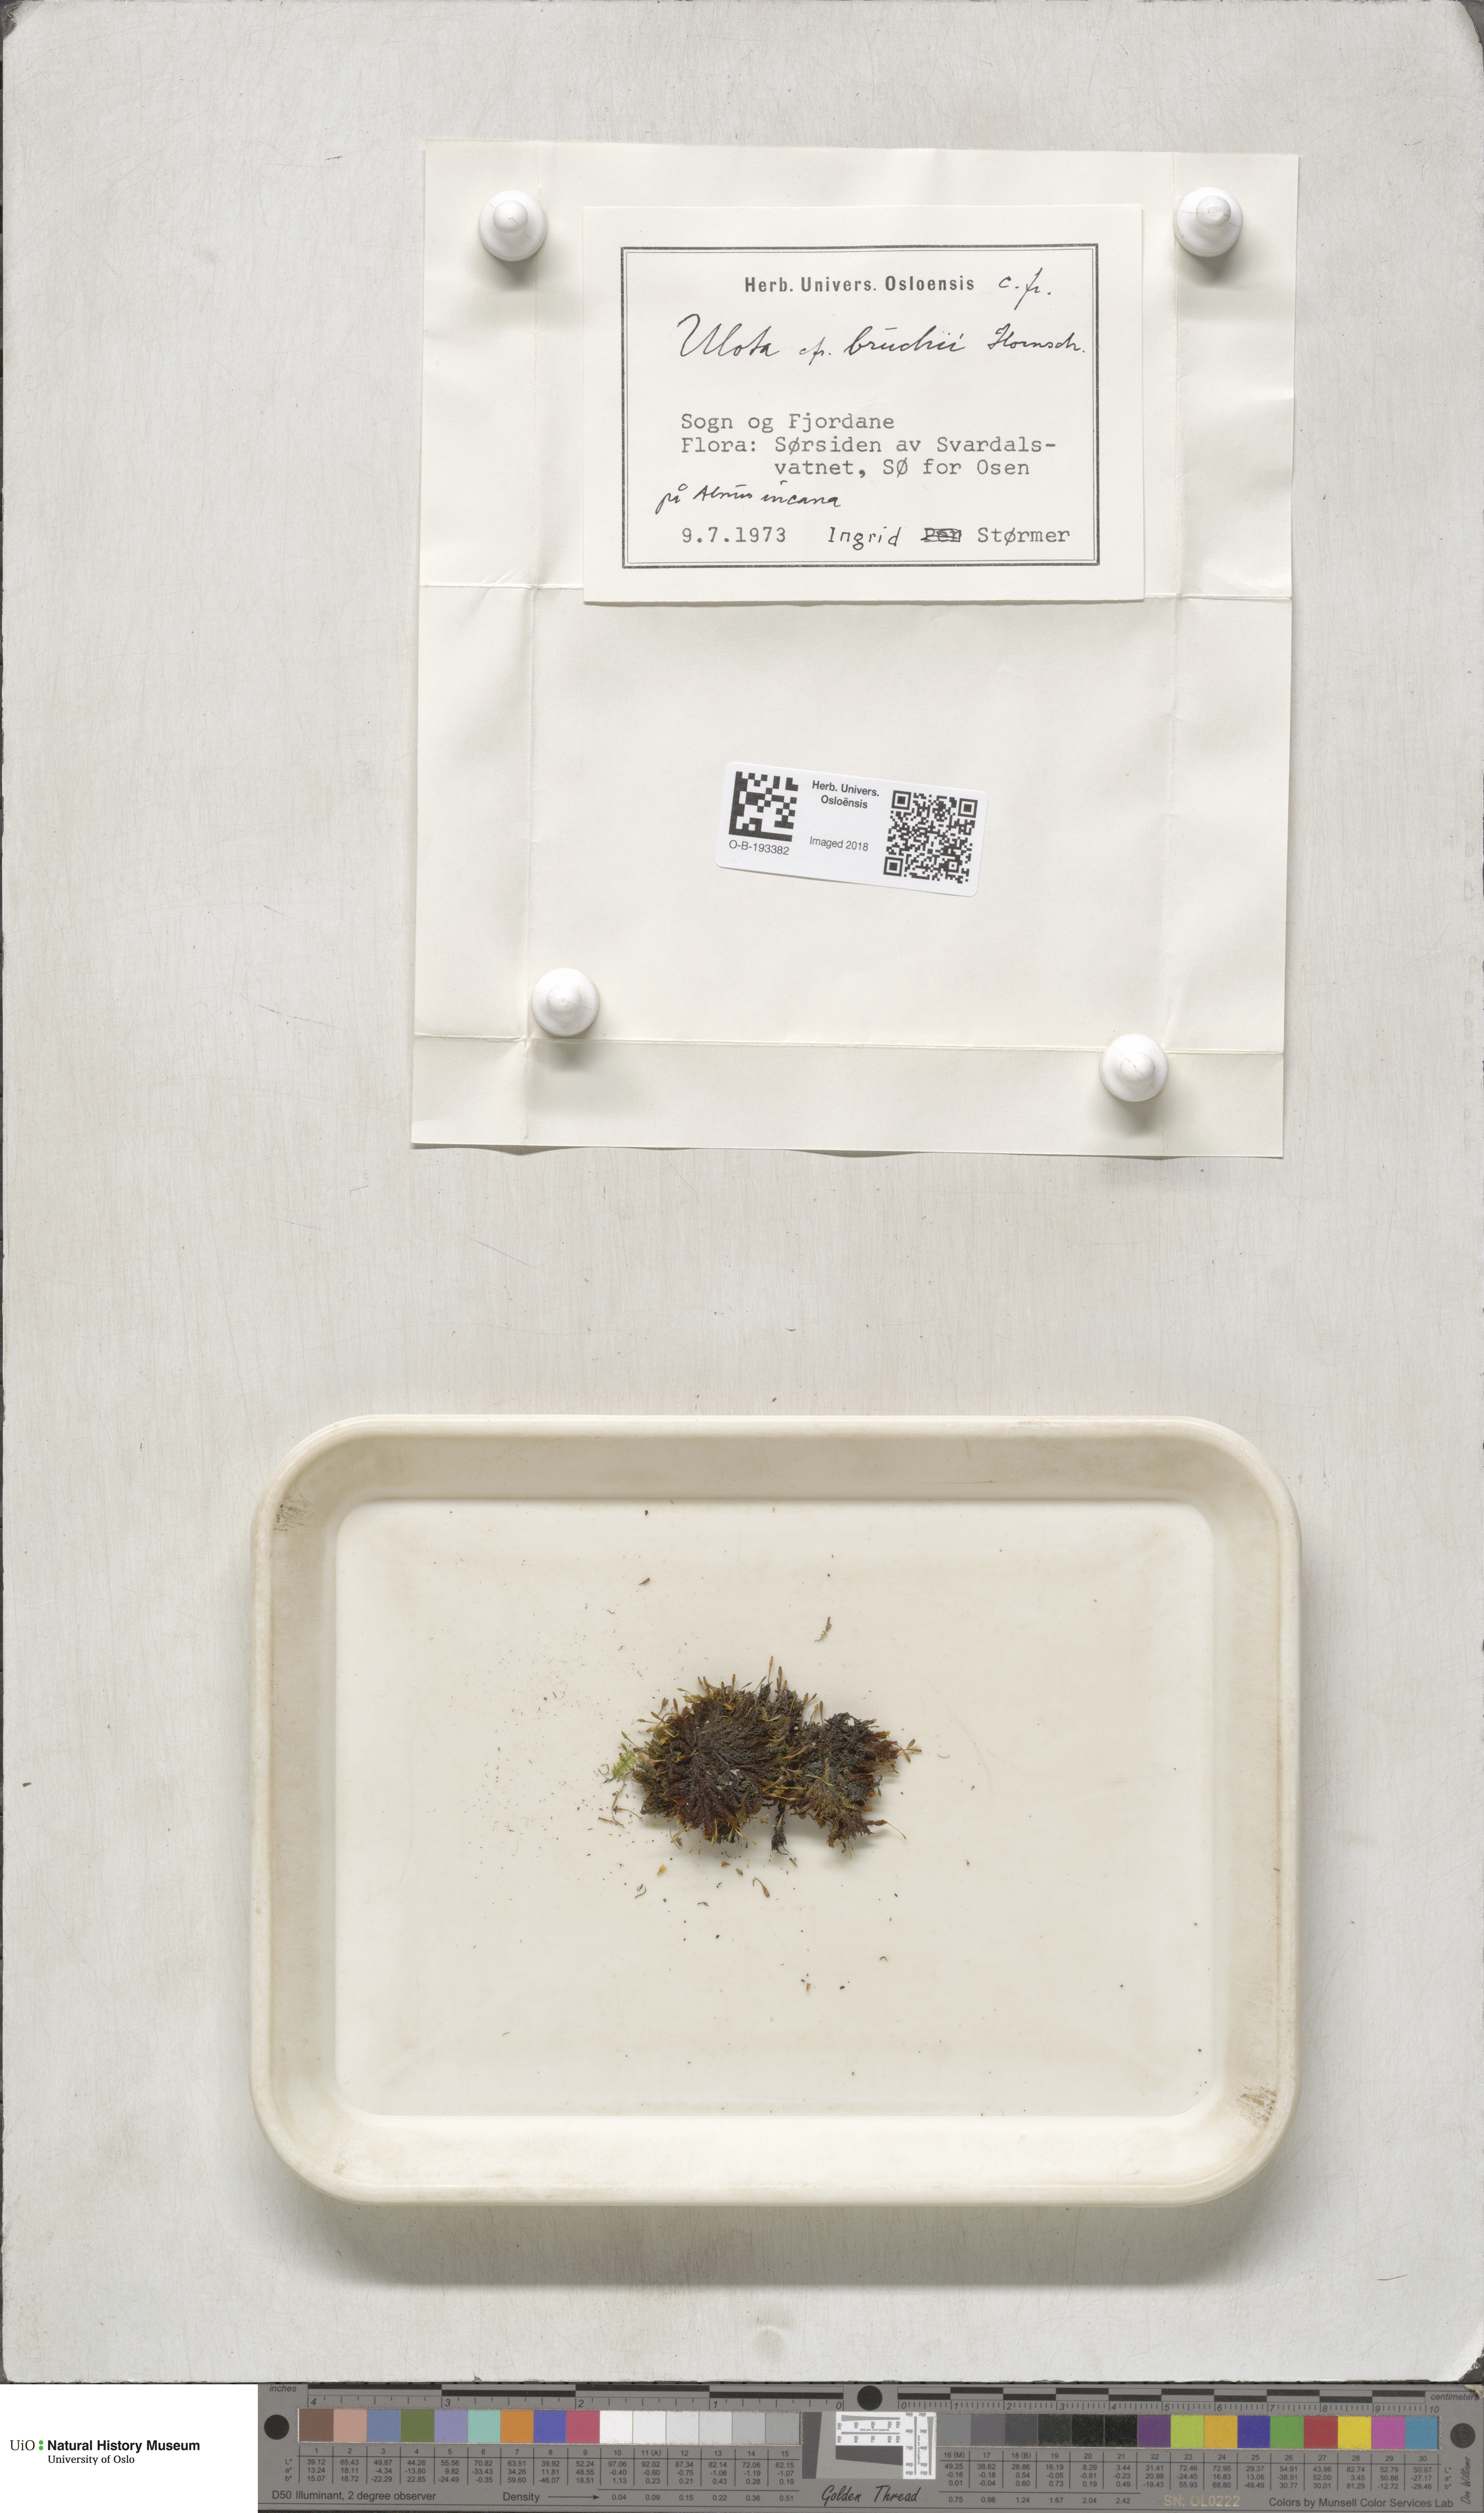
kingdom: Plantae
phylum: Bryophyta
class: Bryopsida
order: Orthotrichales
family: Orthotrichaceae
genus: Ulota
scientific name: Ulota bruchii
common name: Bruch's pincushion
